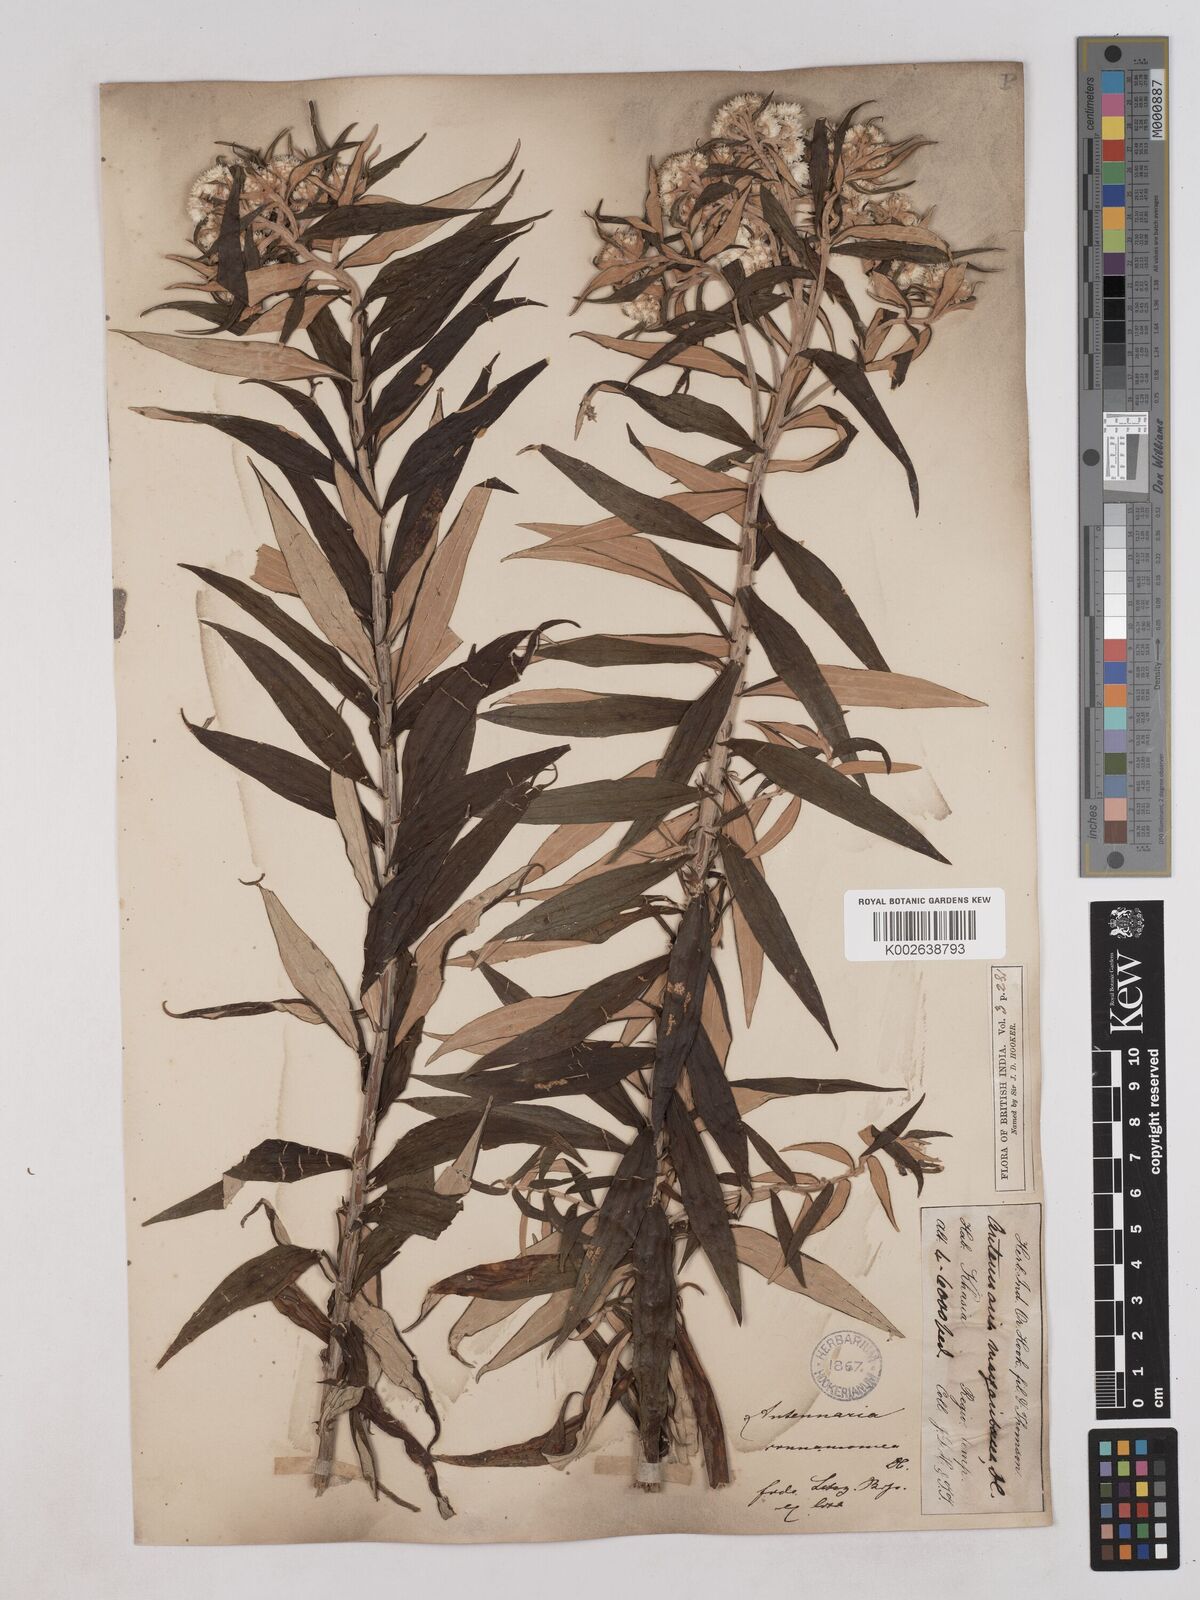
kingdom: Plantae
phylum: Tracheophyta
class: Magnoliopsida
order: Asterales
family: Asteraceae
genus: Anaphalis
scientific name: Anaphalis marcescens
